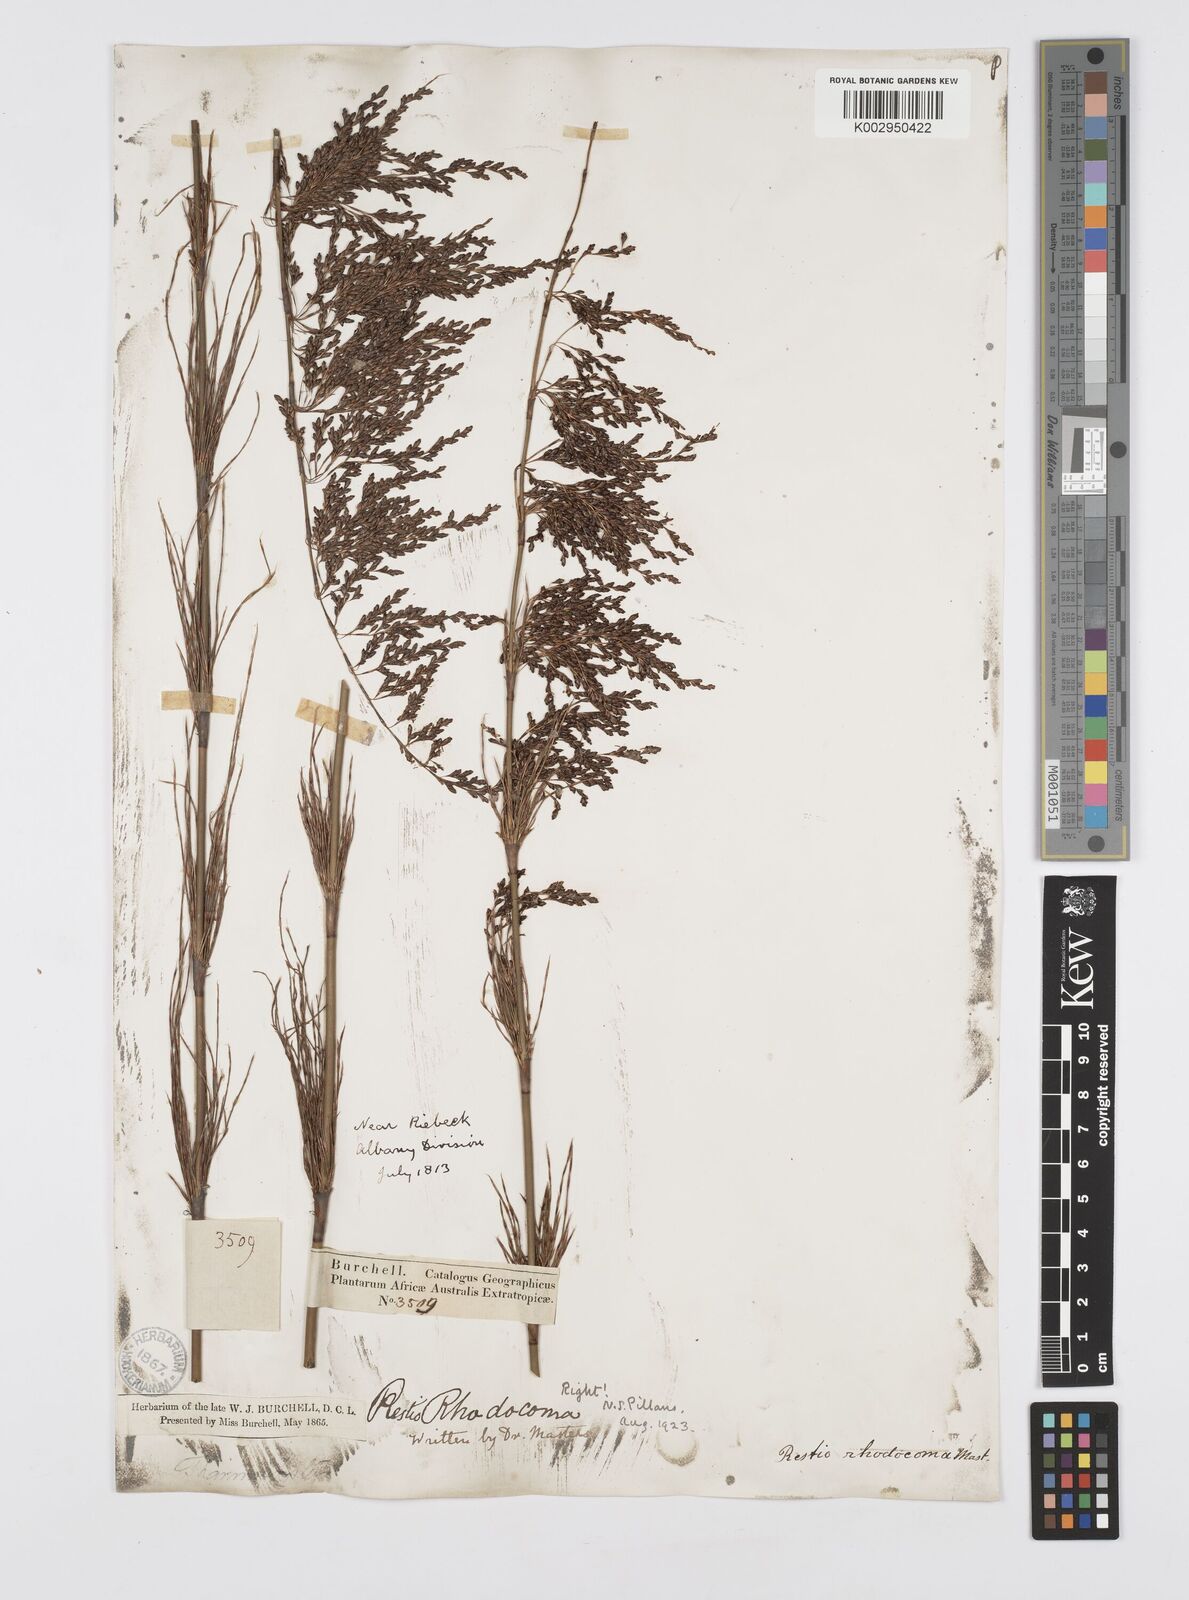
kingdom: Plantae
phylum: Tracheophyta
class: Liliopsida
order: Poales
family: Restionaceae
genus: Rhodocoma
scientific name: Rhodocoma capensis
